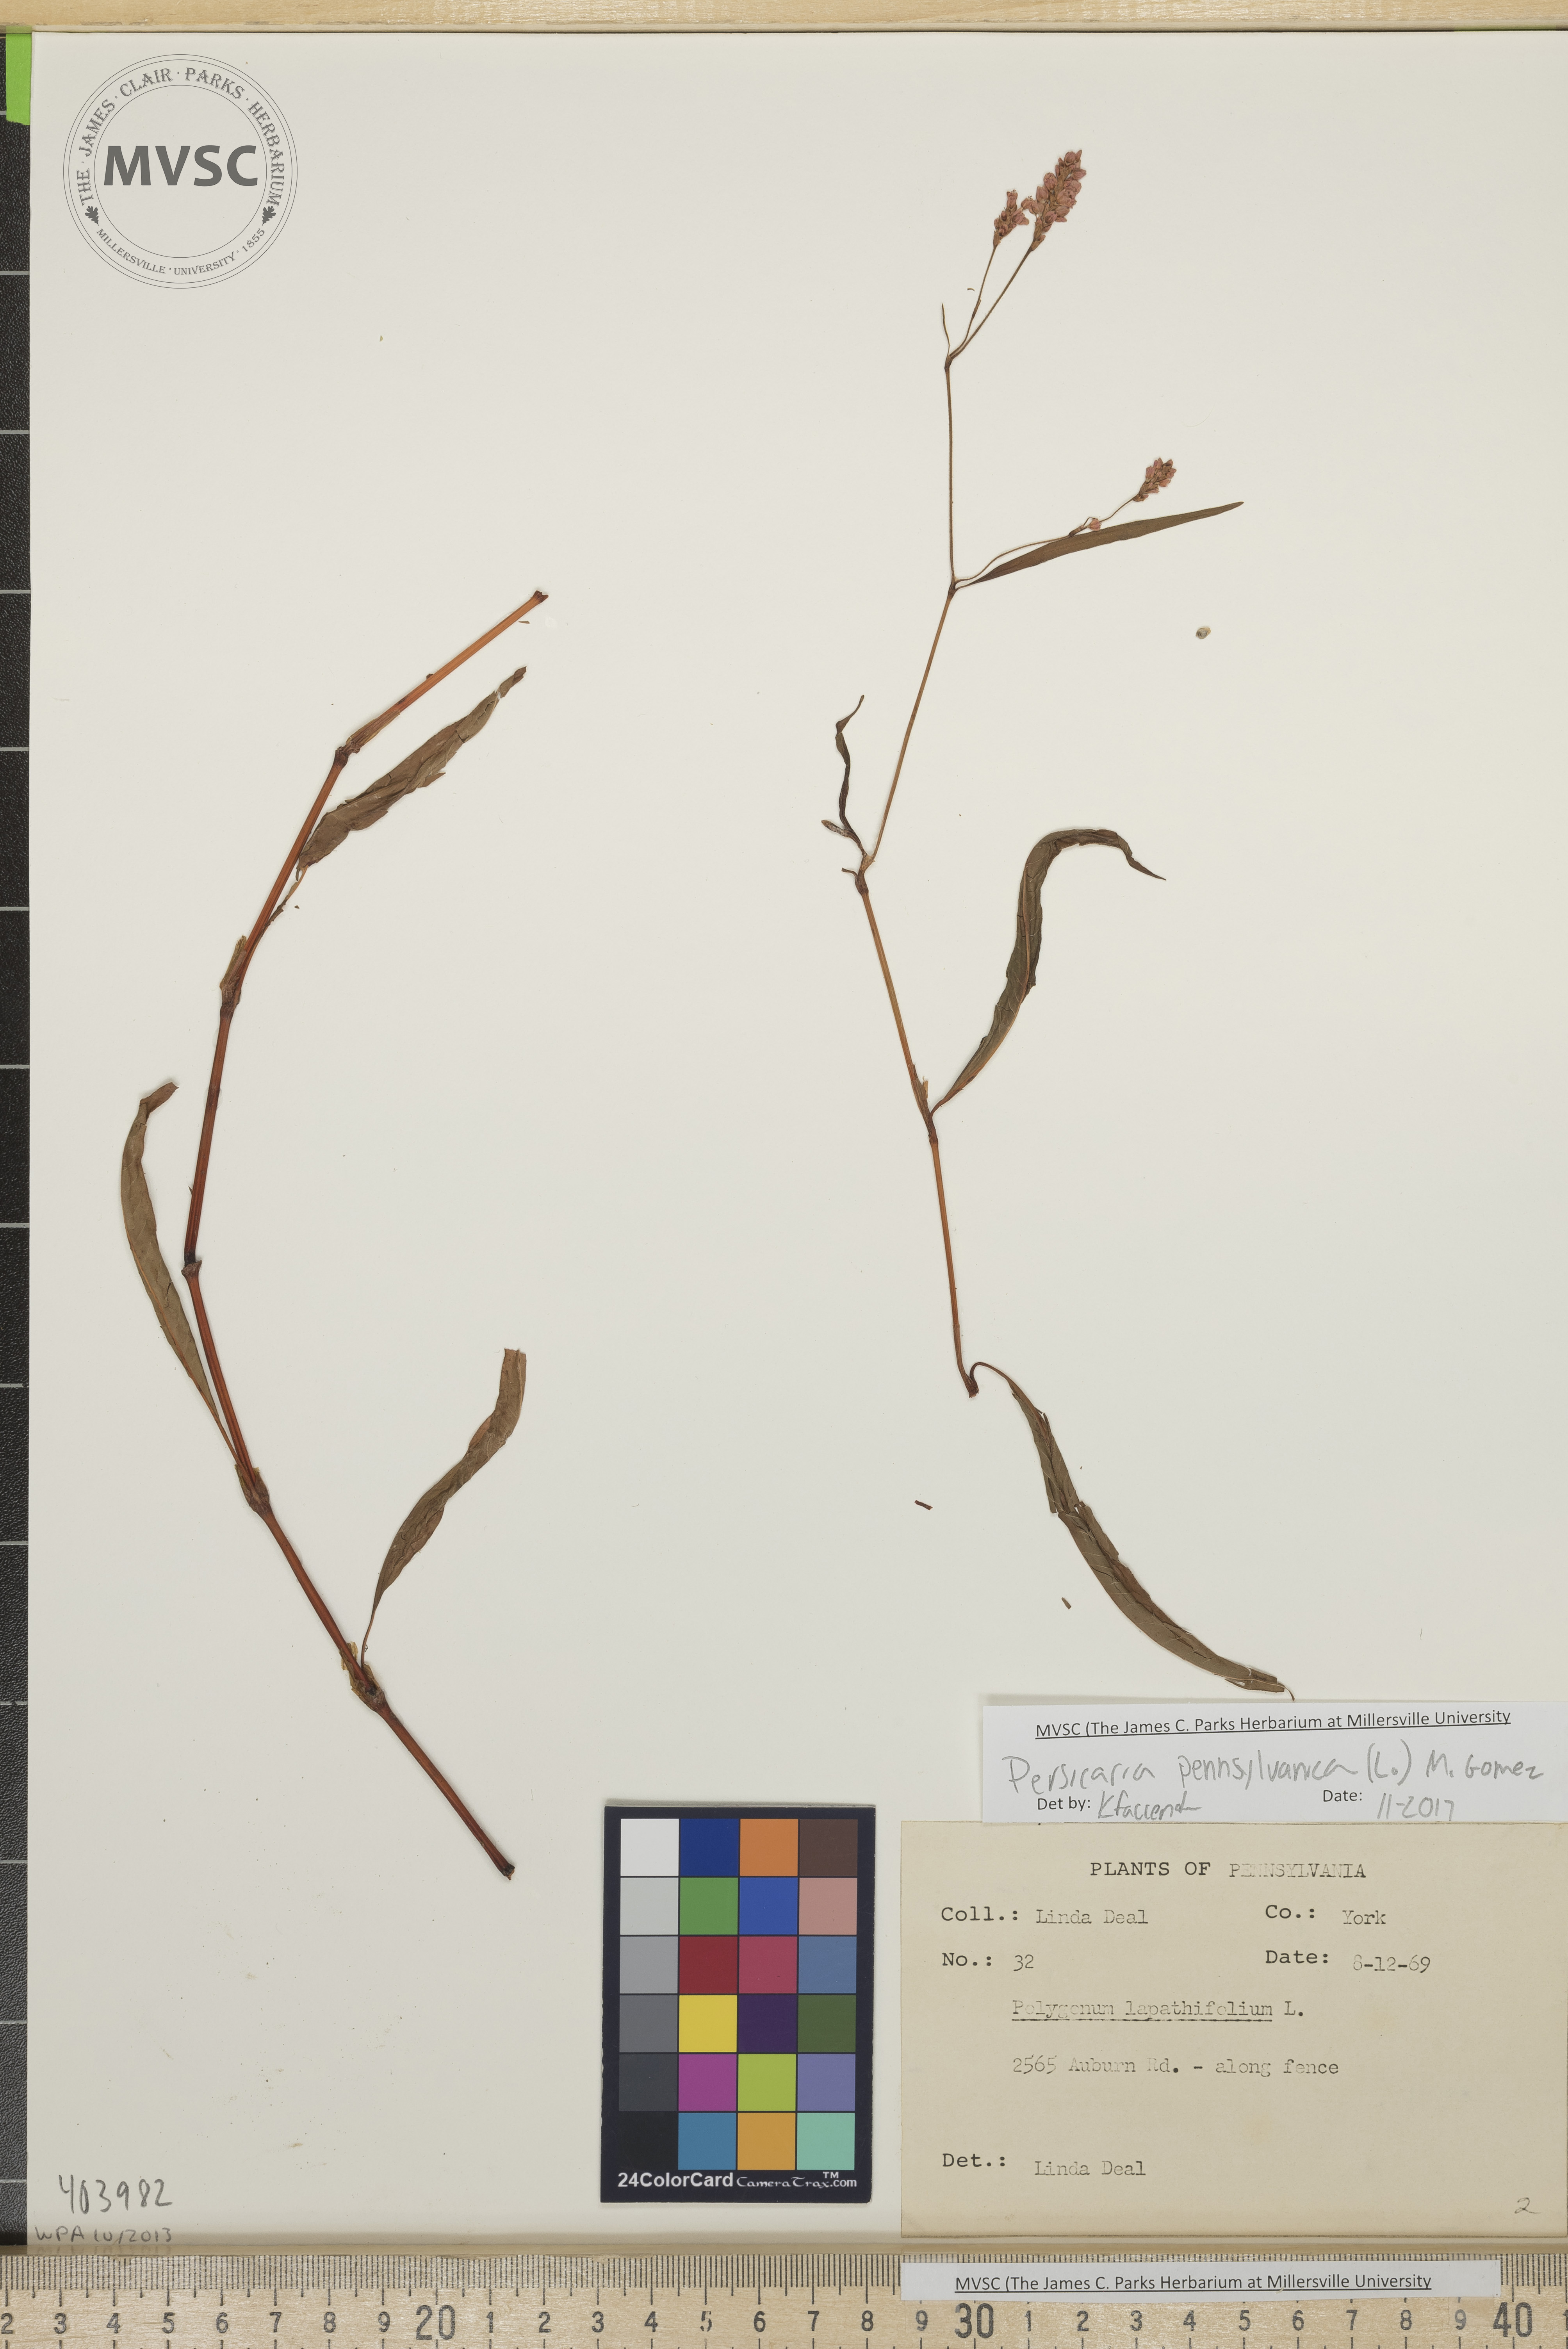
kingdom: Plantae
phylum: Tracheophyta
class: Magnoliopsida
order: Caryophyllales
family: Polygonaceae
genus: Persicaria
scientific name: Persicaria pensylvanica
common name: Pinkweed
